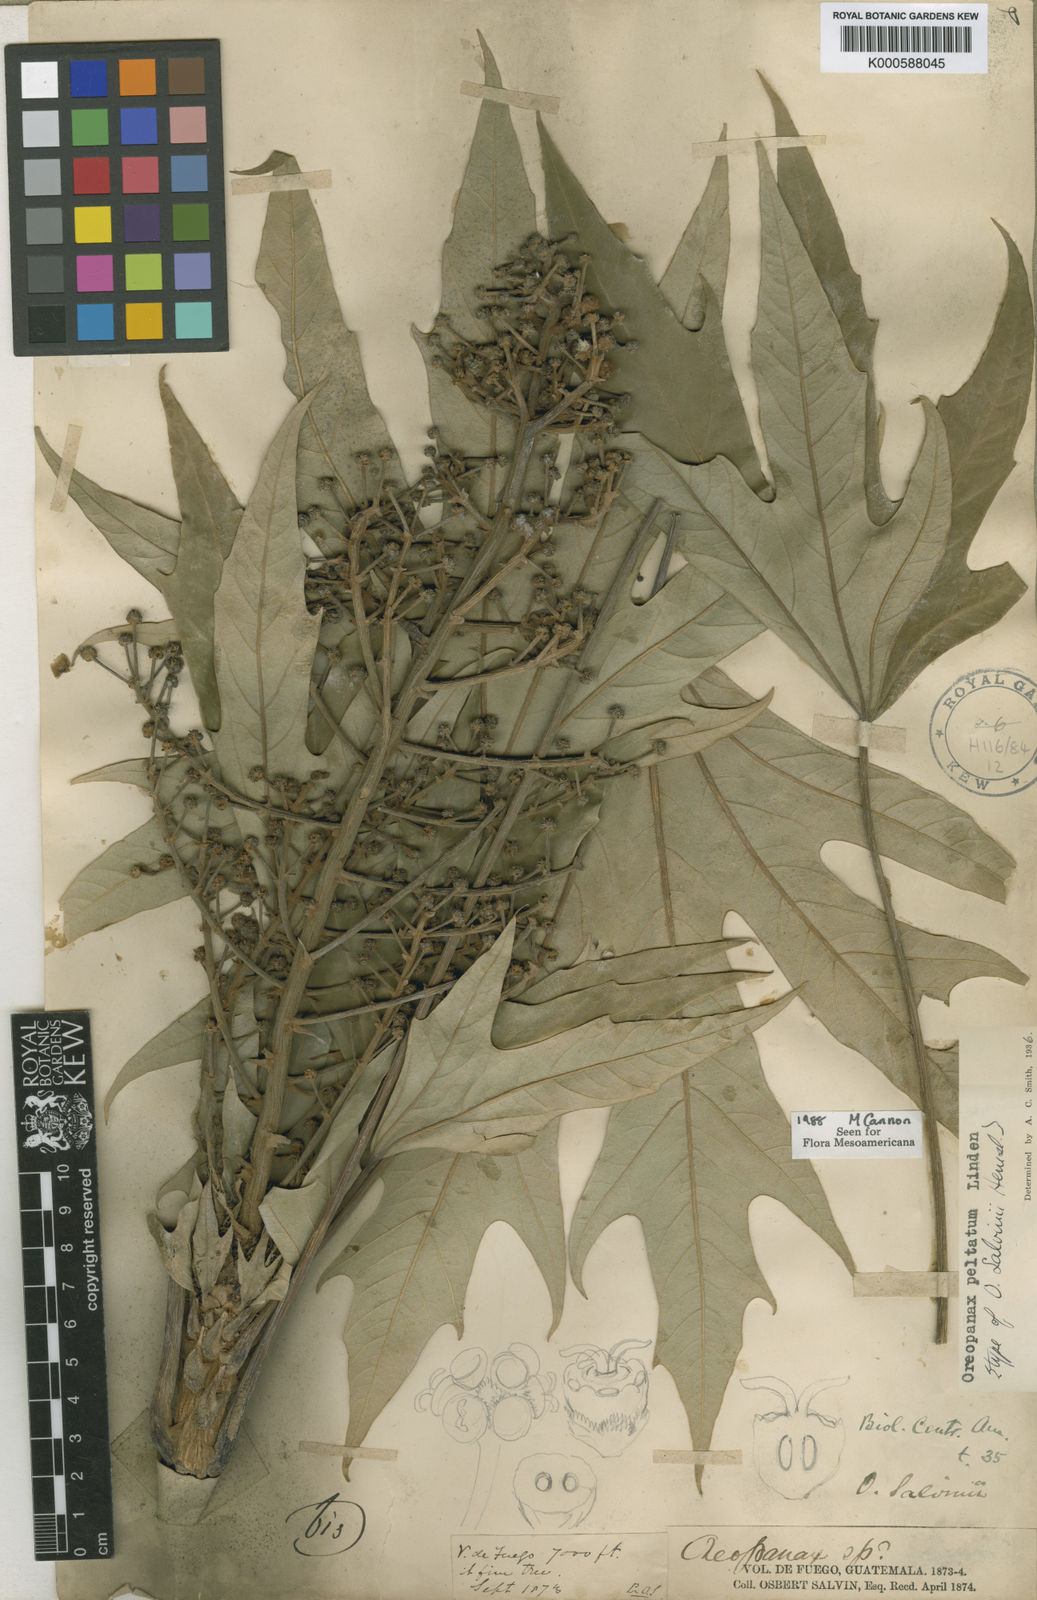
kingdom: Plantae
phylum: Tracheophyta
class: Magnoliopsida
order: Apiales
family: Araliaceae
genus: Oreopanax
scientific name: Oreopanax
